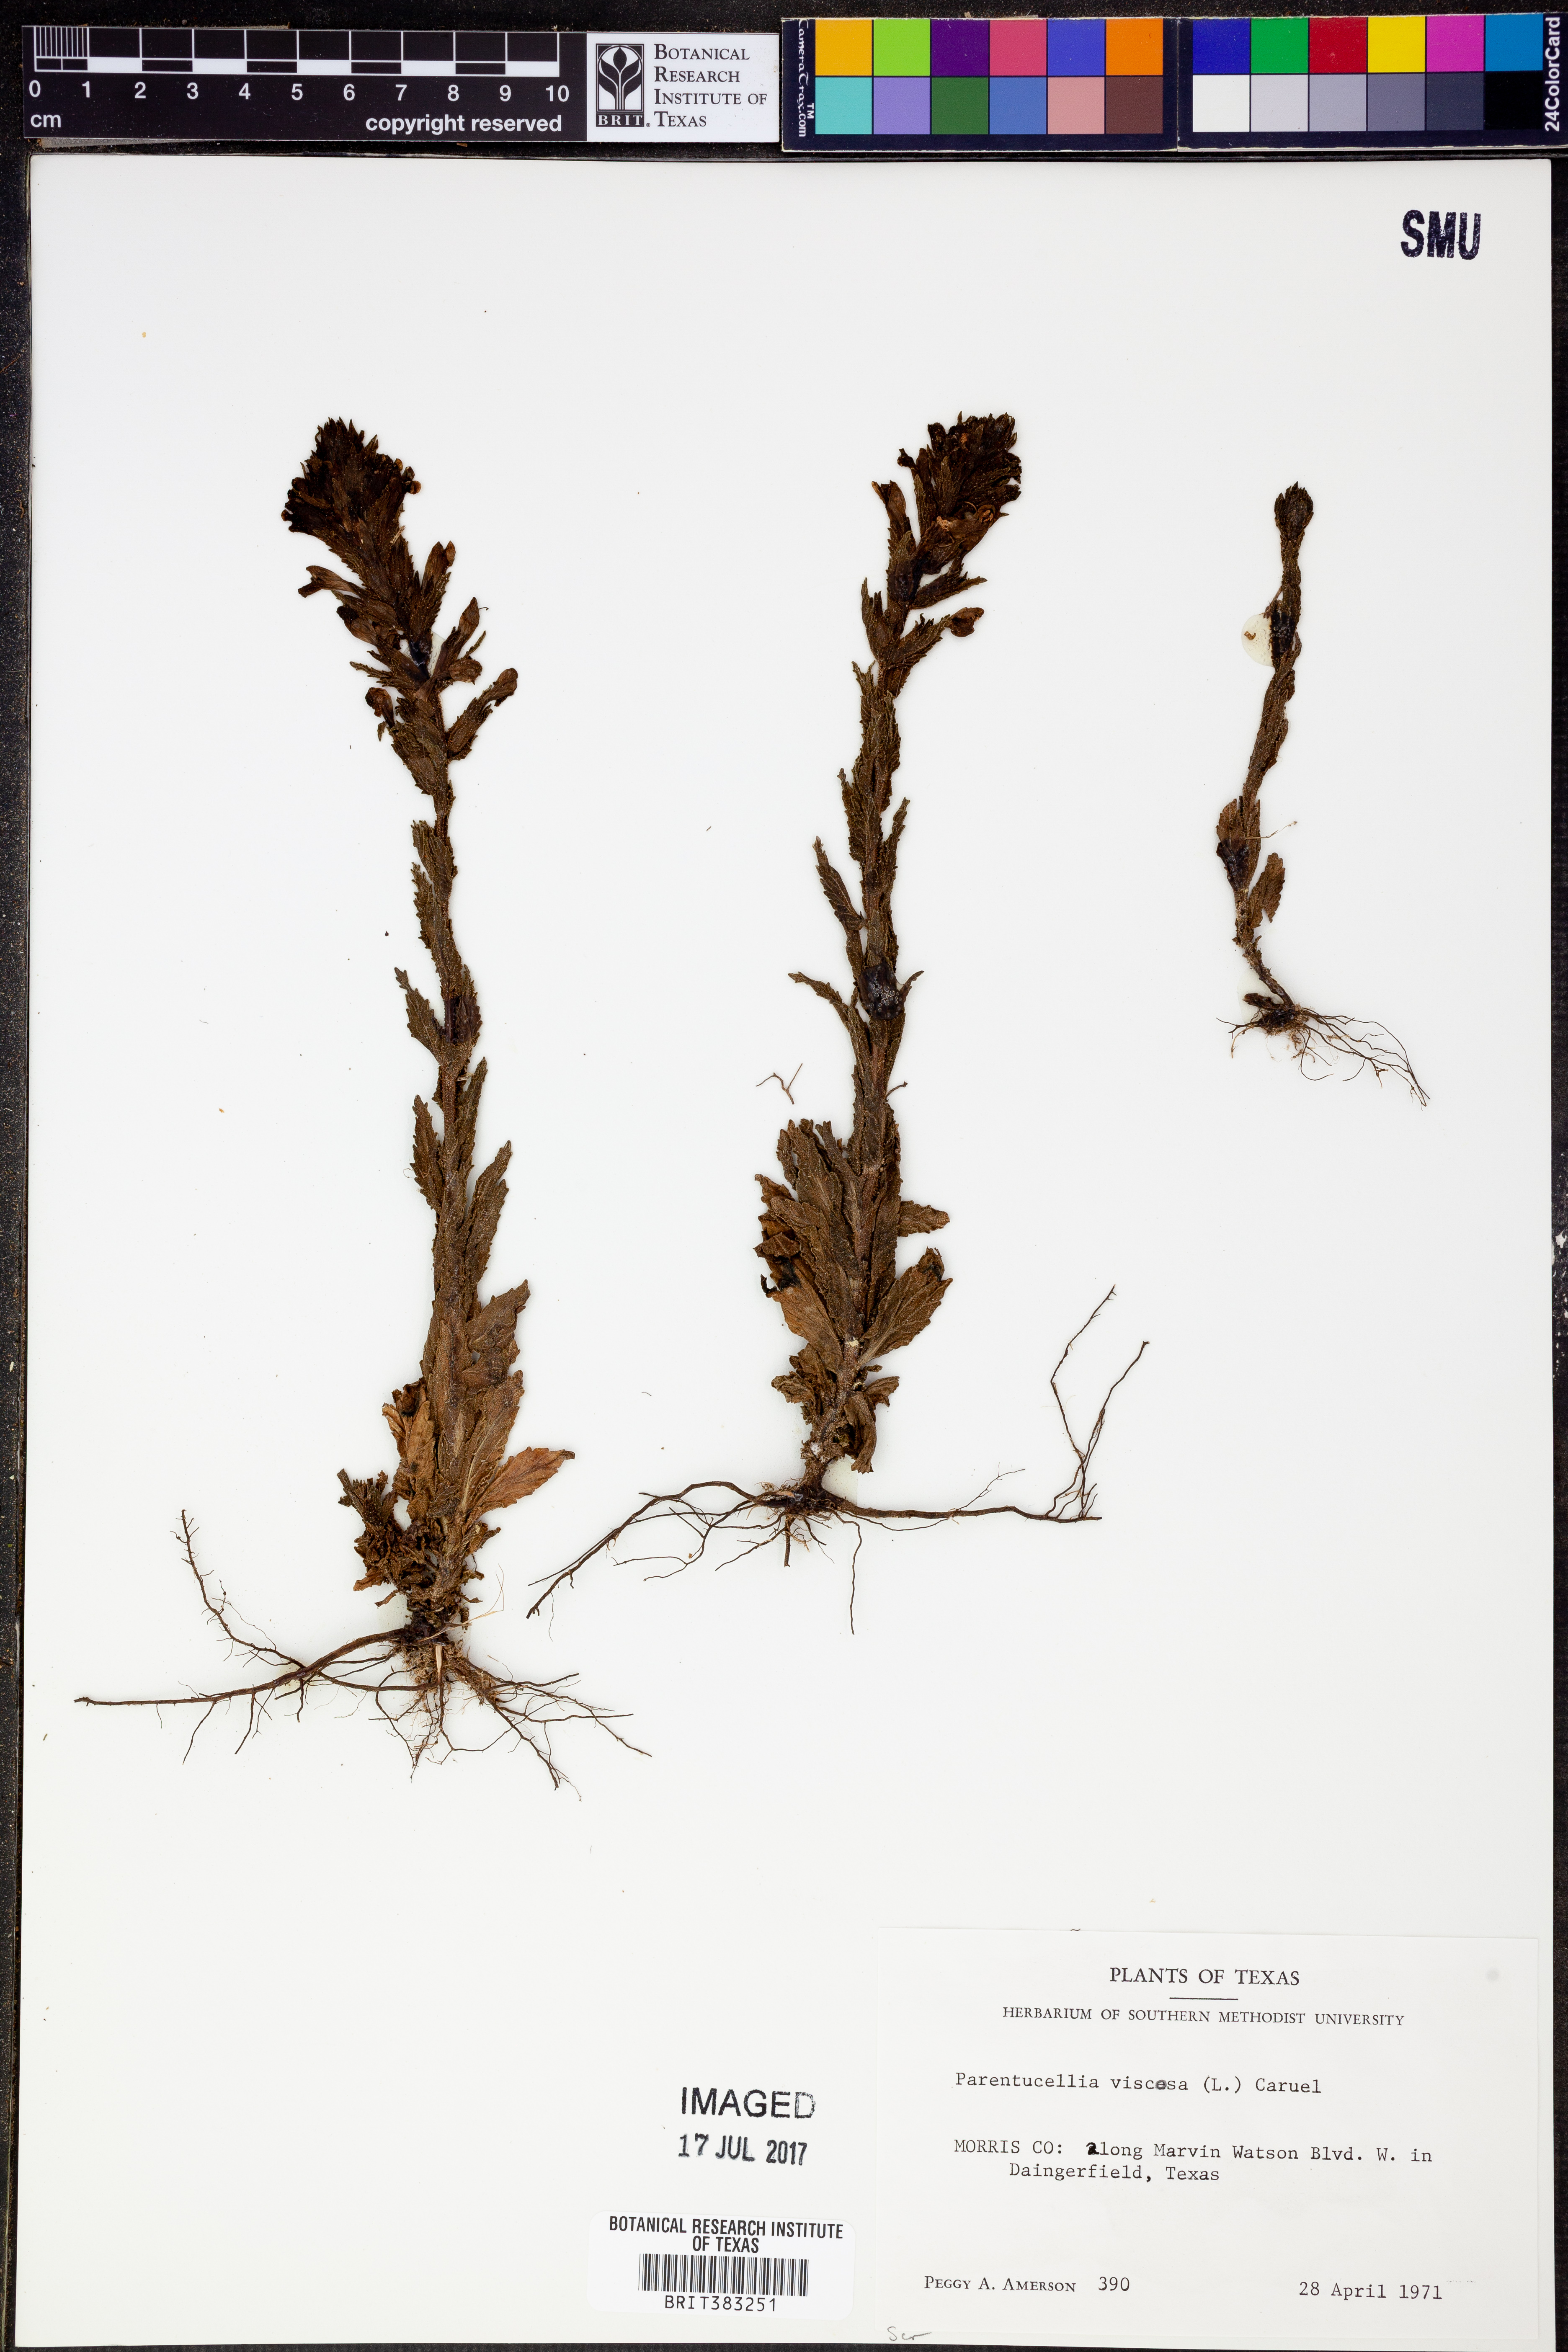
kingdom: Plantae
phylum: Tracheophyta
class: Magnoliopsida
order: Lamiales
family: Orobanchaceae
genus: Bellardia
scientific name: Bellardia viscosa
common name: Sticky parentucellia
